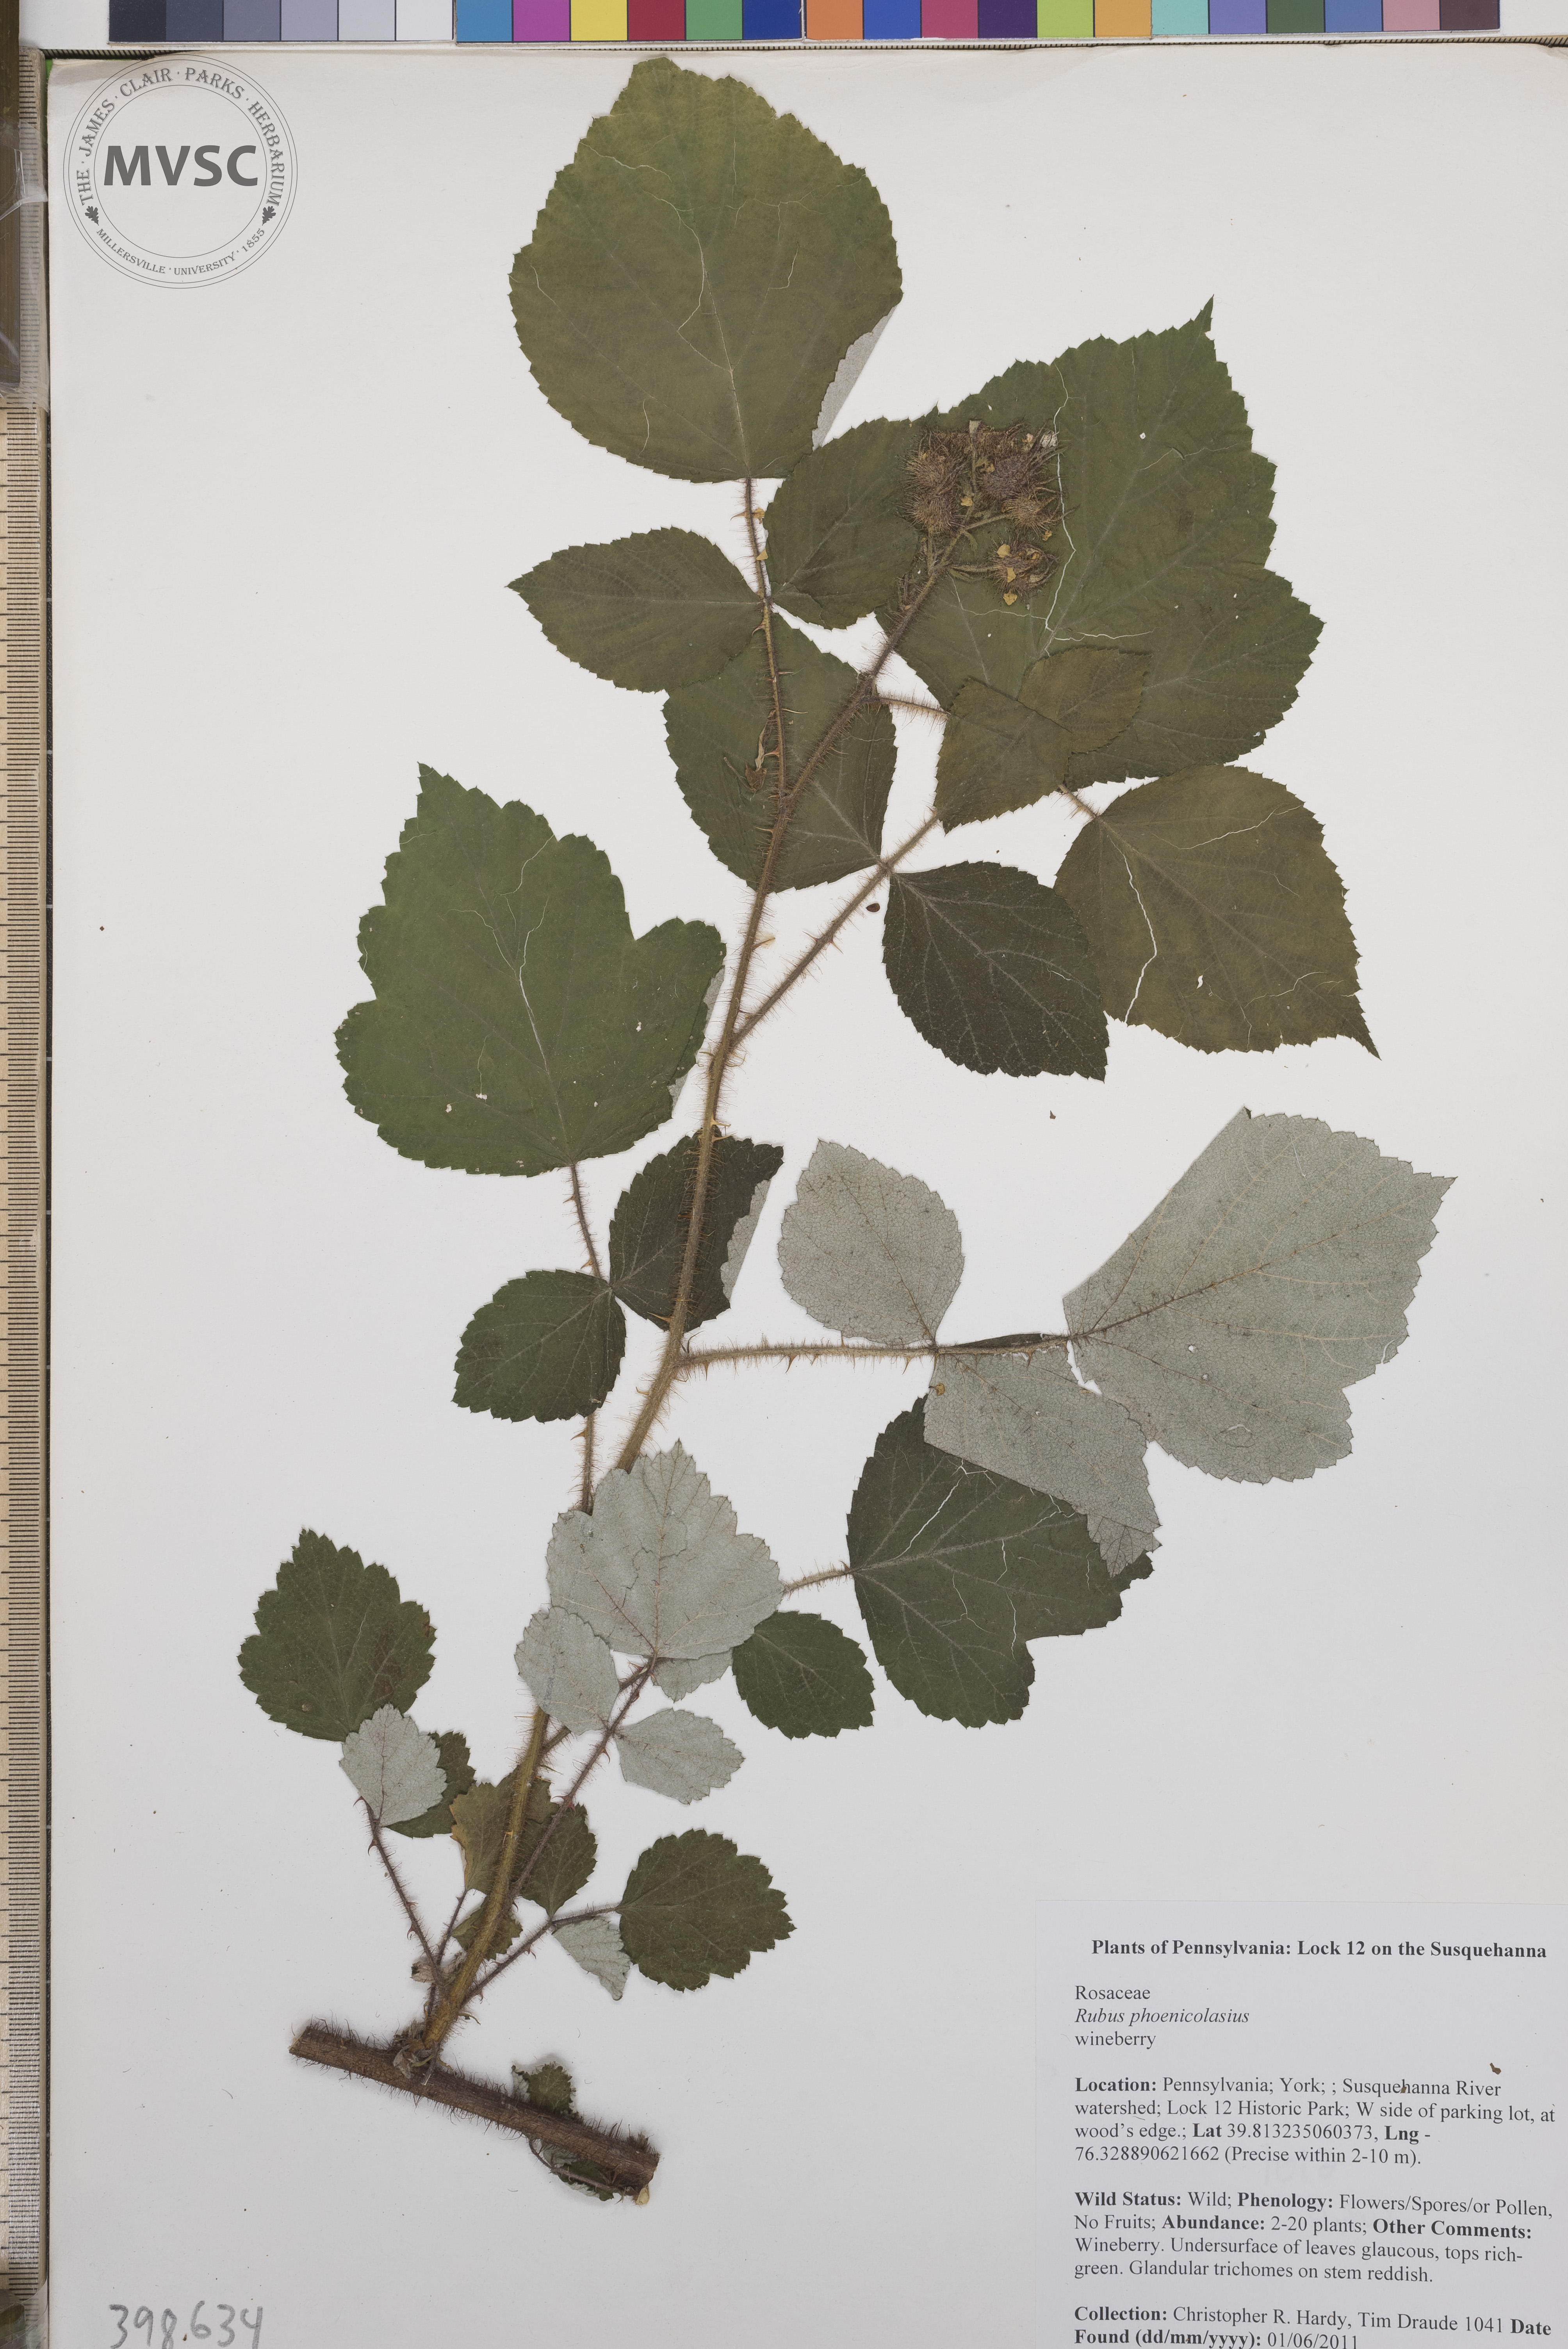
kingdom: Plantae
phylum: Tracheophyta
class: Magnoliopsida
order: Rosales
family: Rosaceae
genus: Rubus
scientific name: Rubus phoenicolasius
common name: Wineberry
